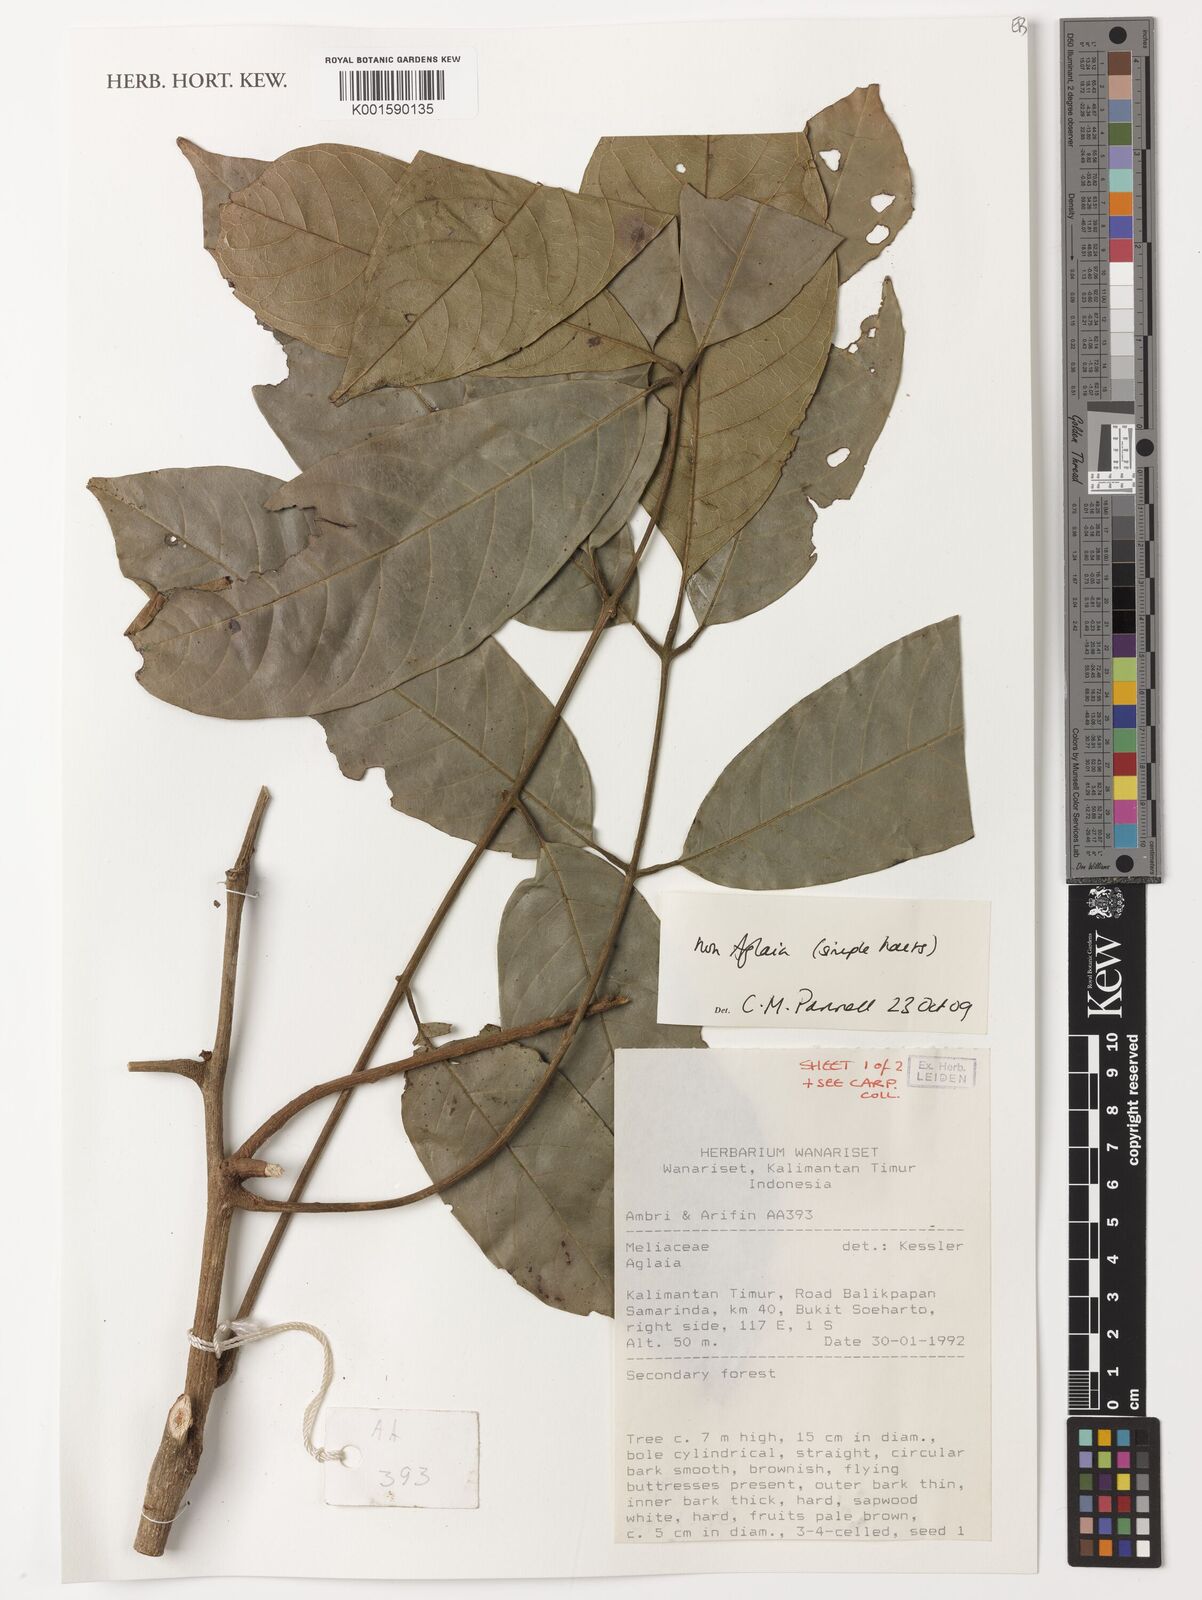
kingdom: Plantae
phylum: Tracheophyta
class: Magnoliopsida
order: Sapindales
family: Meliaceae
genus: Aglaia
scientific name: Aglaia
